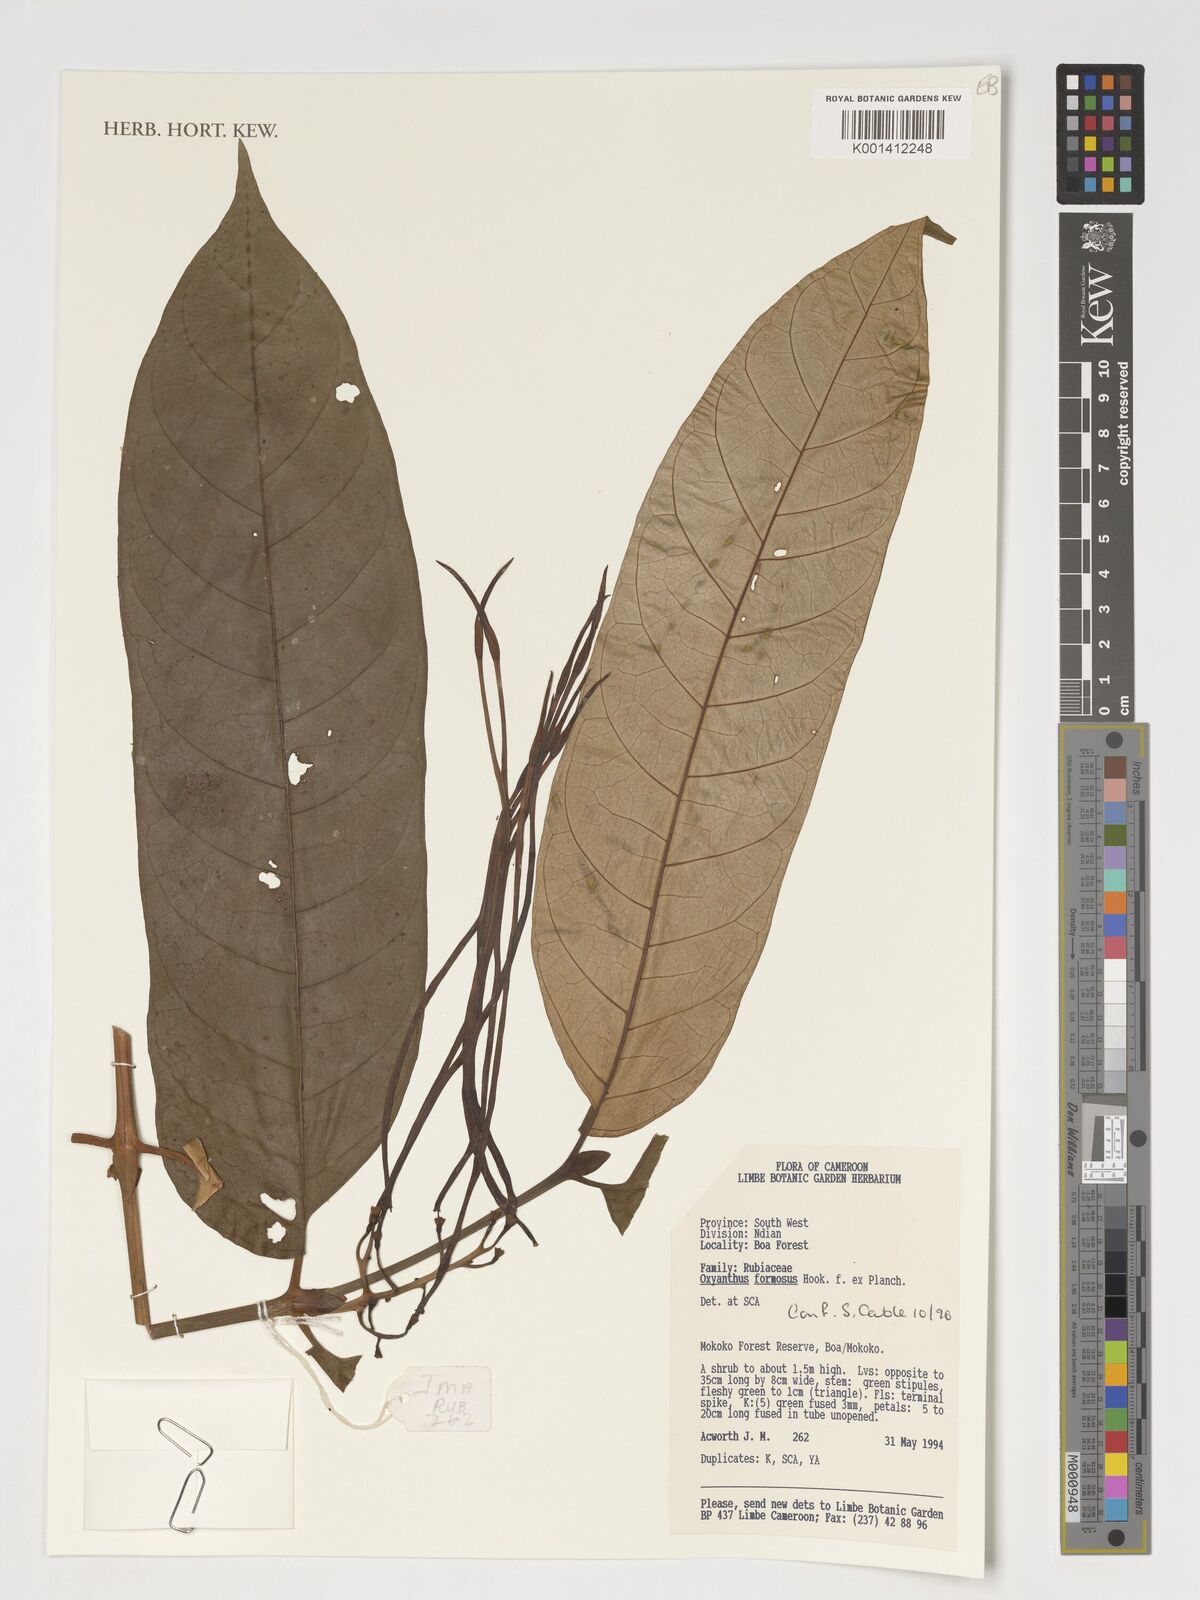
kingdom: Plantae
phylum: Tracheophyta
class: Magnoliopsida
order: Gentianales
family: Rubiaceae
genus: Oxyanthus
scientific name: Oxyanthus formosus
